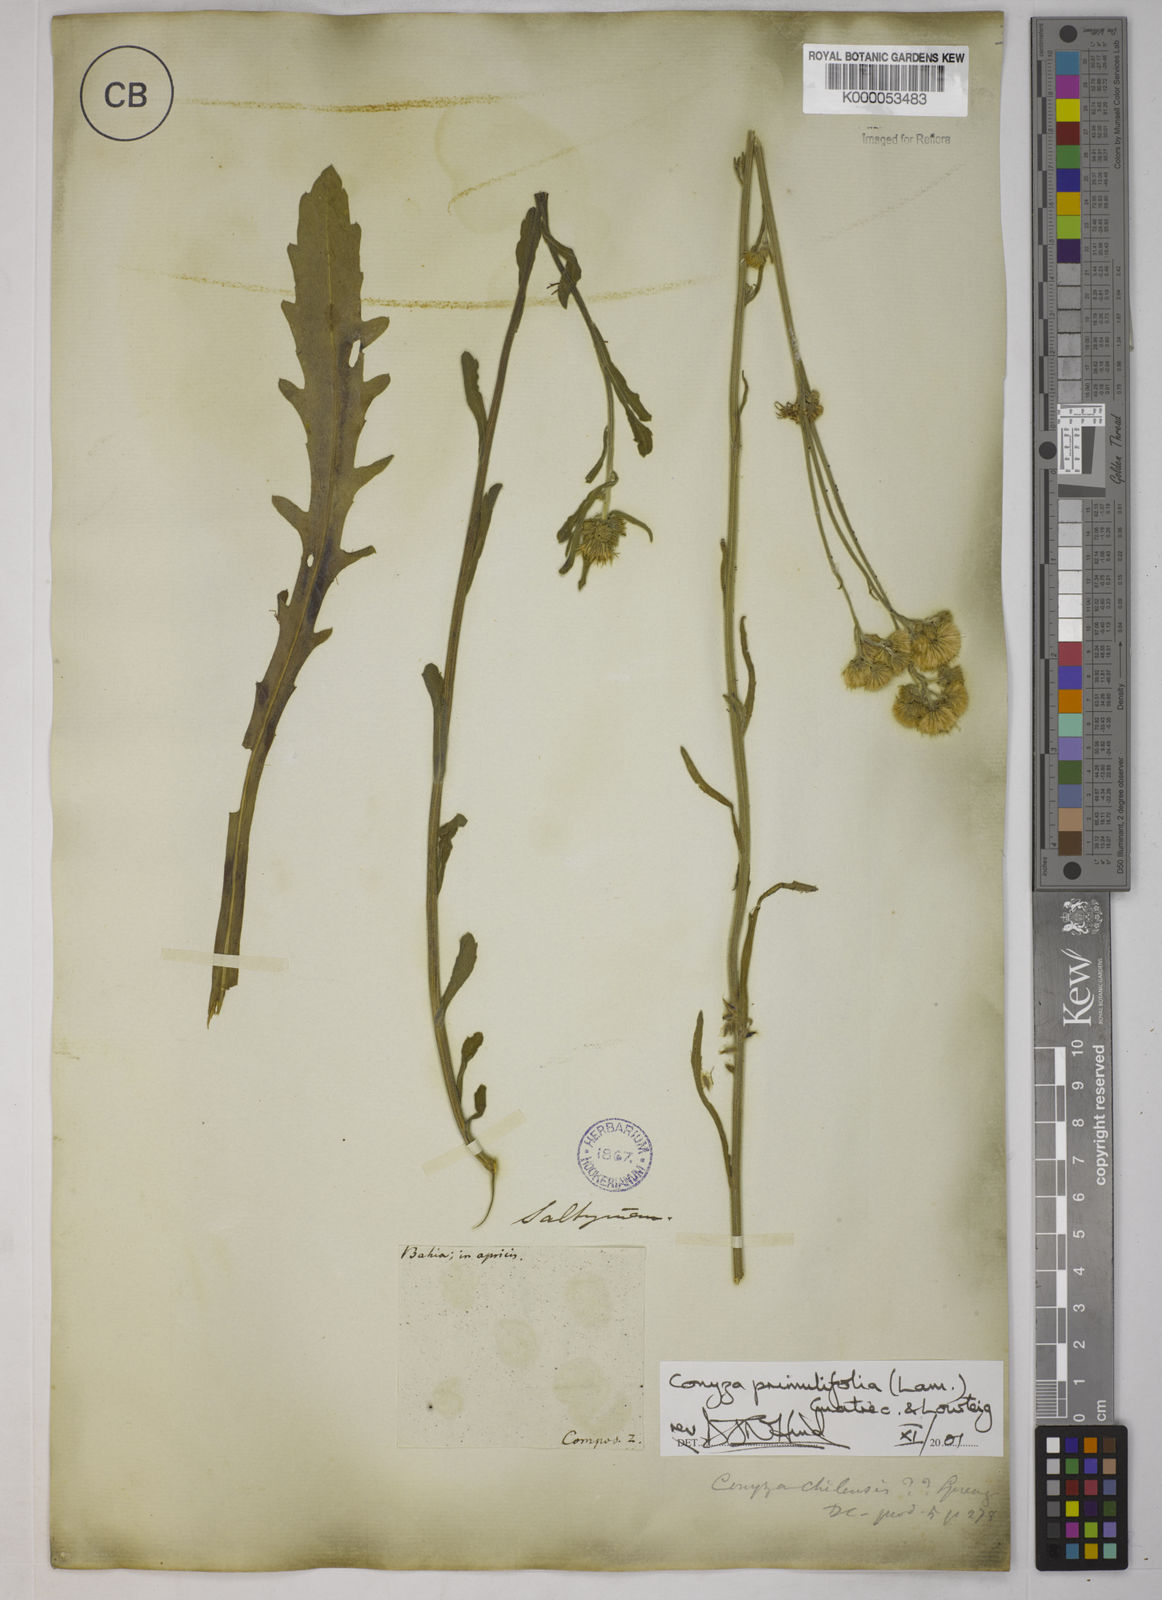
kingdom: Plantae
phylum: Tracheophyta
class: Magnoliopsida
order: Asterales
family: Asteraceae
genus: Erigeron
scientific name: Erigeron primulifolius
